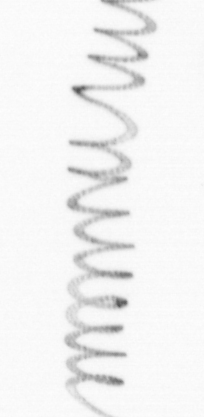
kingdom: Chromista
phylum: Ochrophyta
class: Bacillariophyceae
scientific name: Bacillariophyceae
